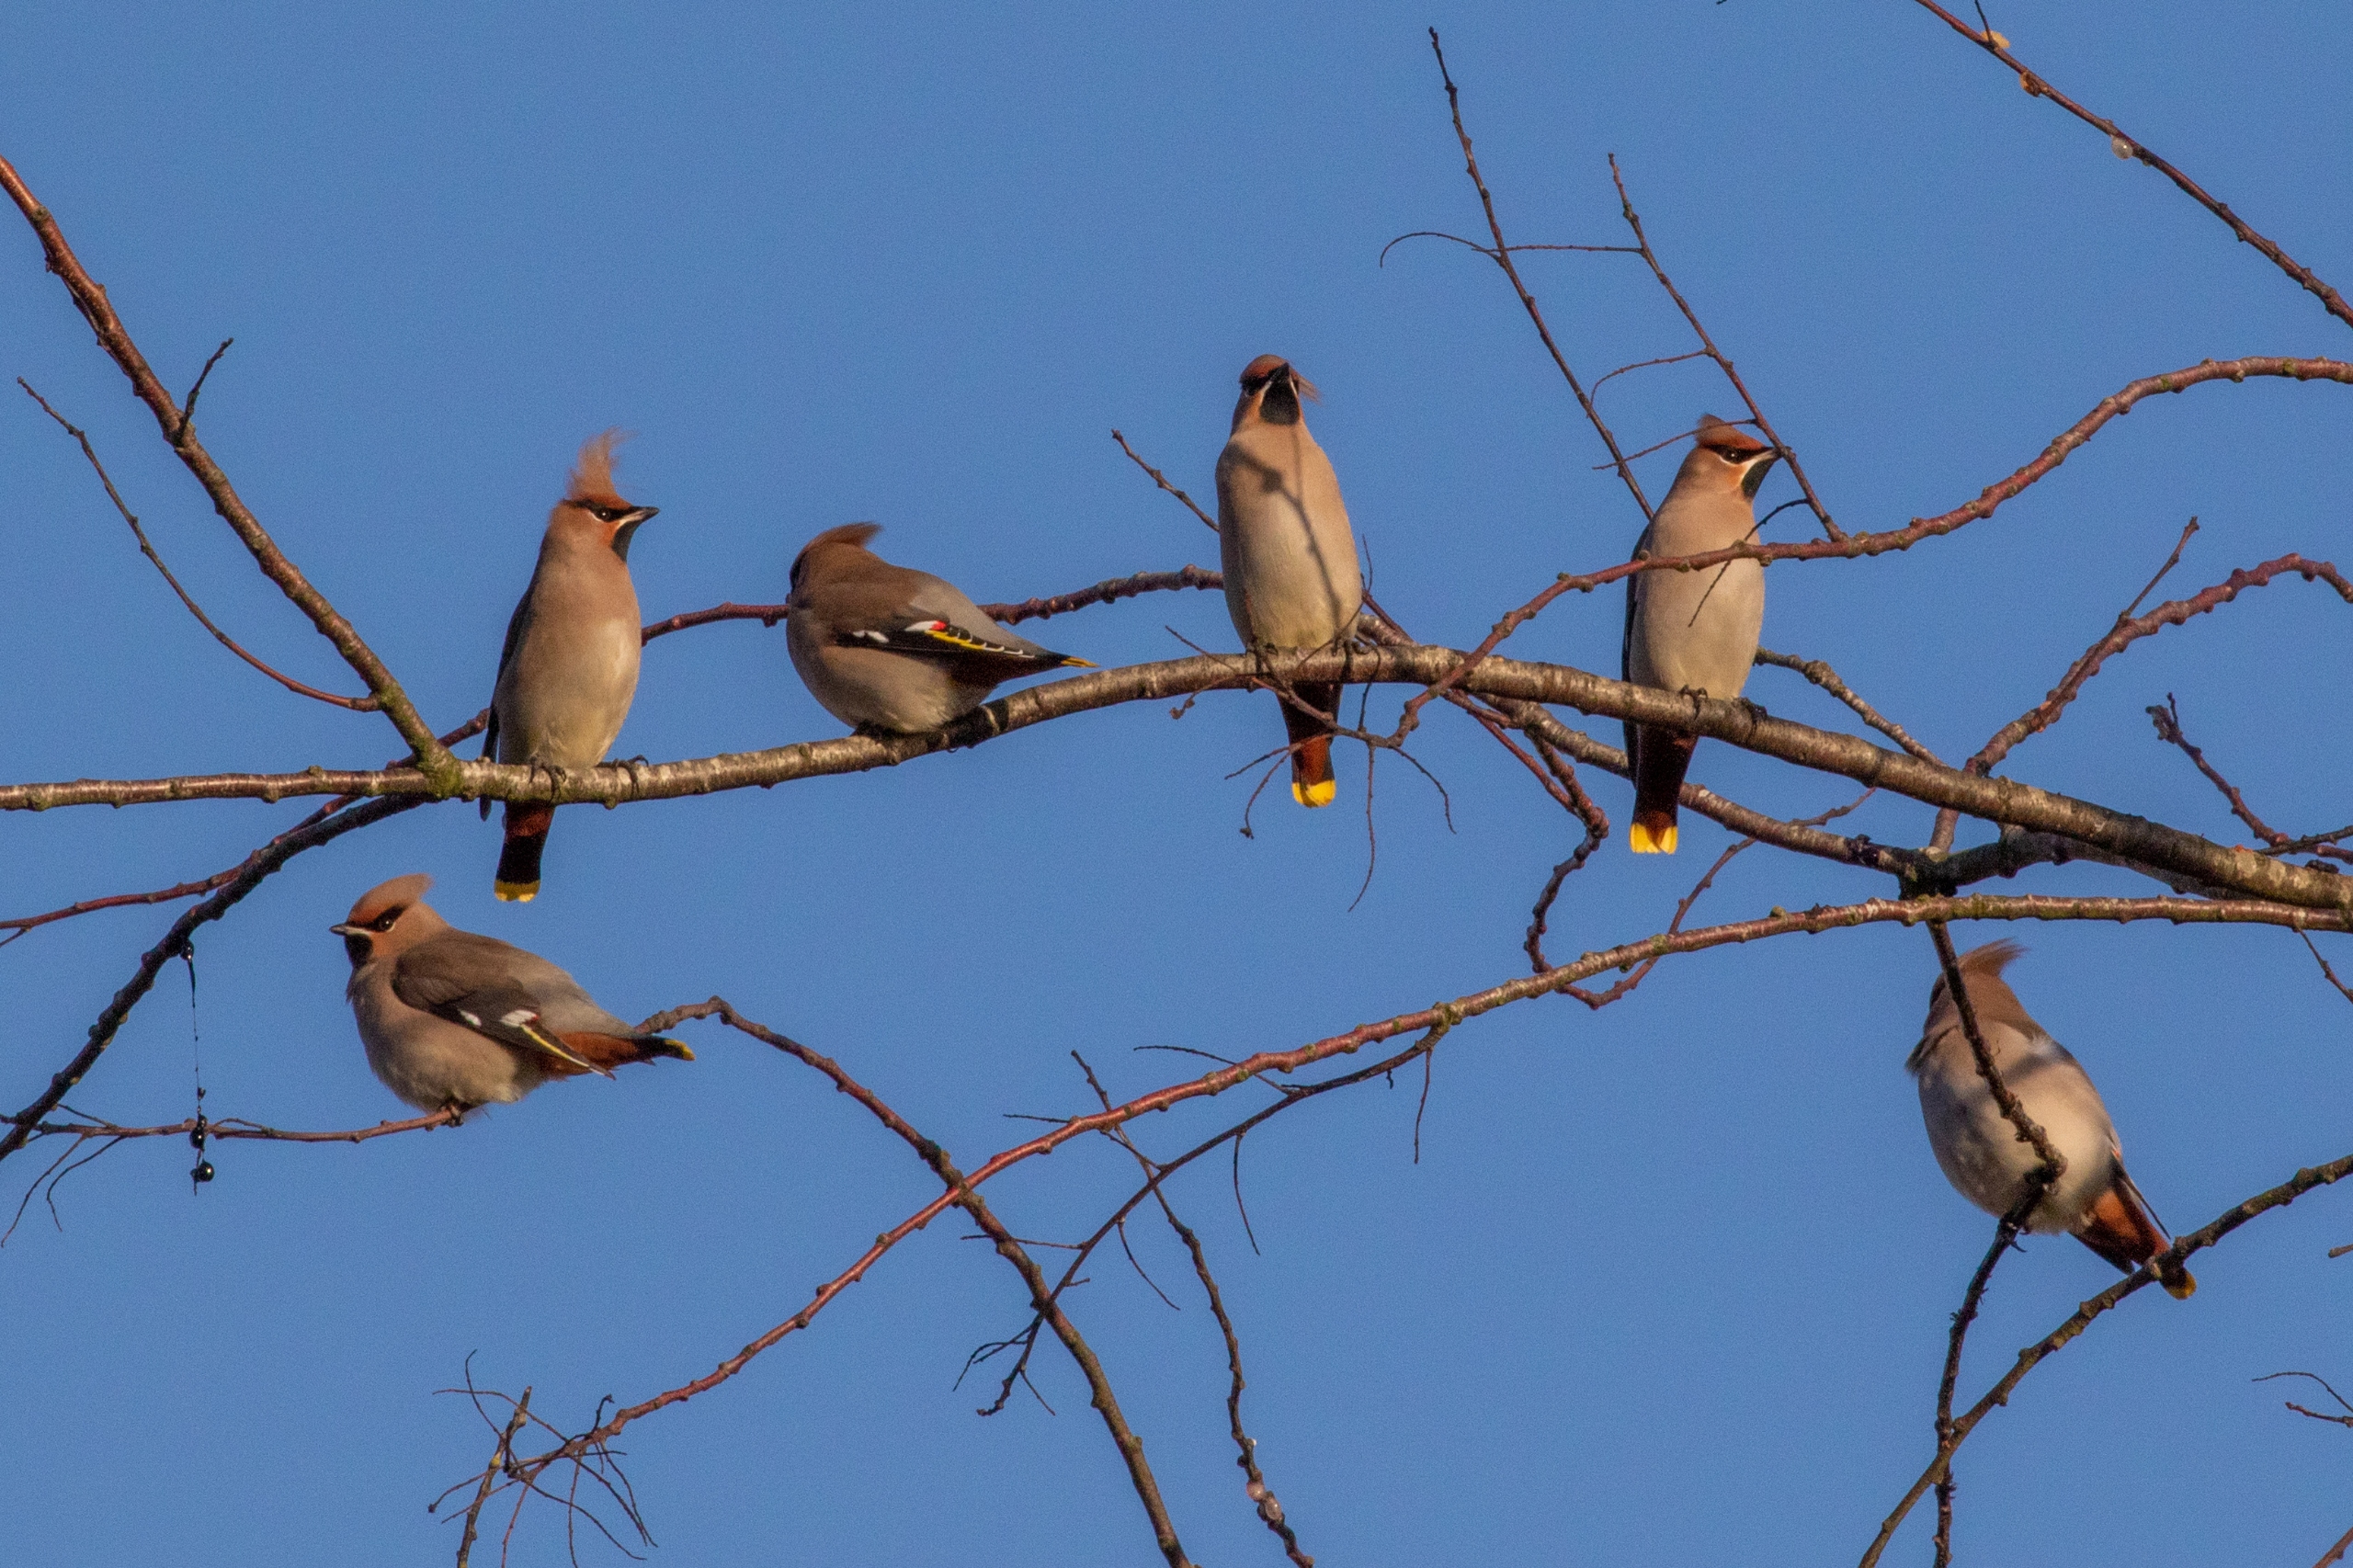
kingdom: Animalia
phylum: Chordata
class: Aves
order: Passeriformes
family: Bombycillidae
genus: Bombycilla
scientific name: Bombycilla garrulus
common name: Silkehale
